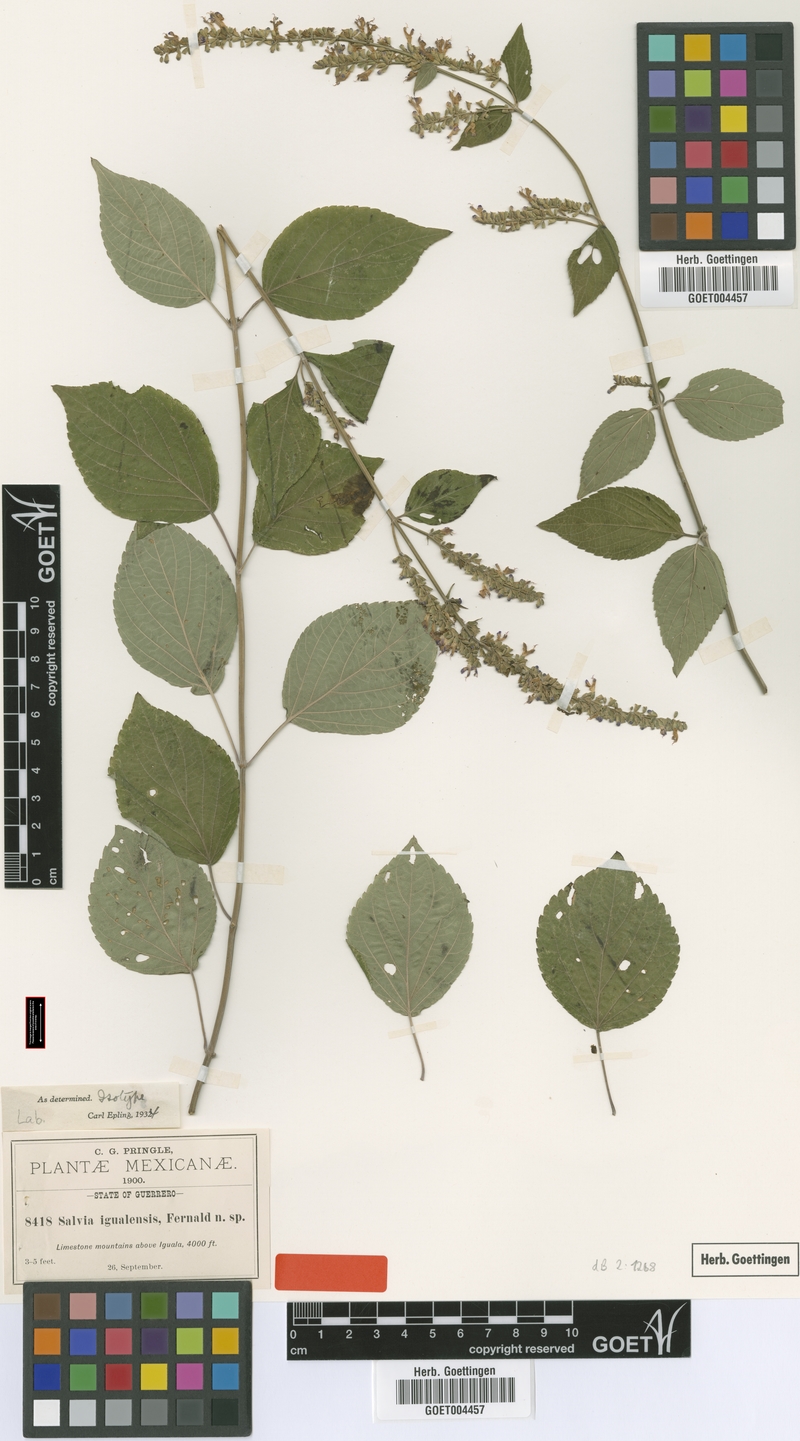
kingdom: Plantae
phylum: Tracheophyta
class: Magnoliopsida
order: Lamiales
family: Lamiaceae
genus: Salvia
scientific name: Salvia polystachia
